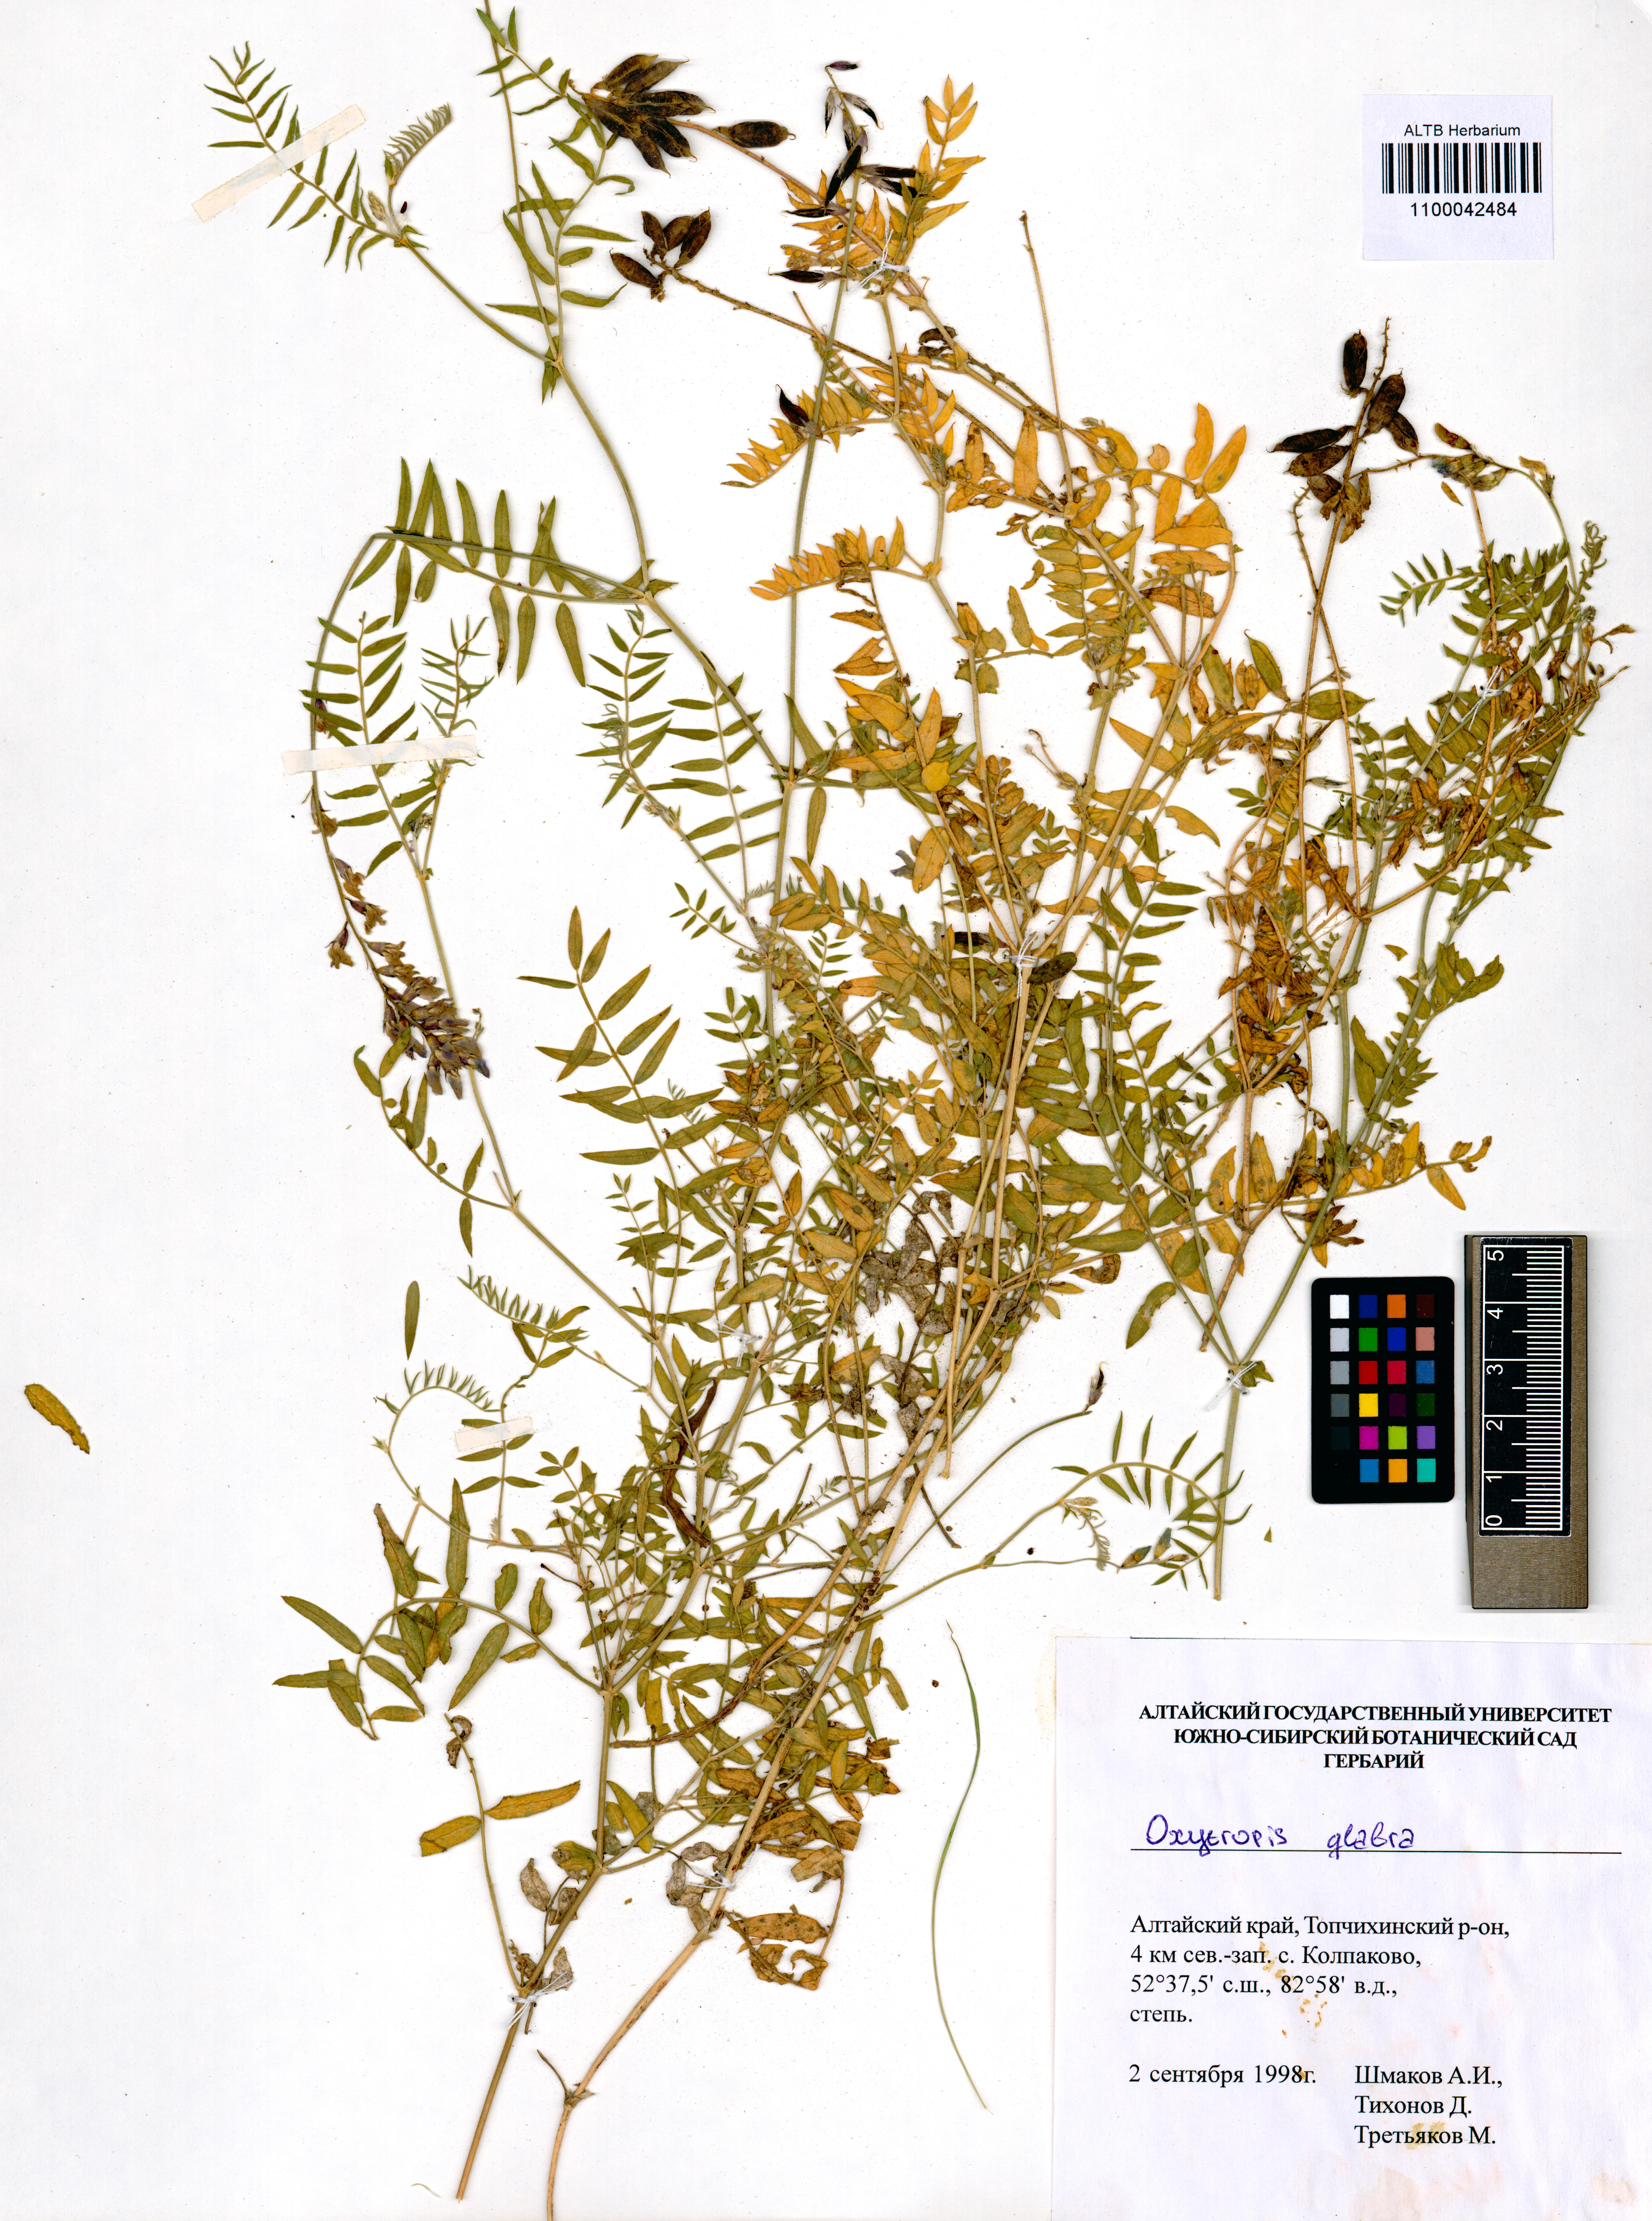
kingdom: Plantae
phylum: Tracheophyta
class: Magnoliopsida
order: Fabales
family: Fabaceae
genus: Oxytropis
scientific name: Oxytropis glabra
